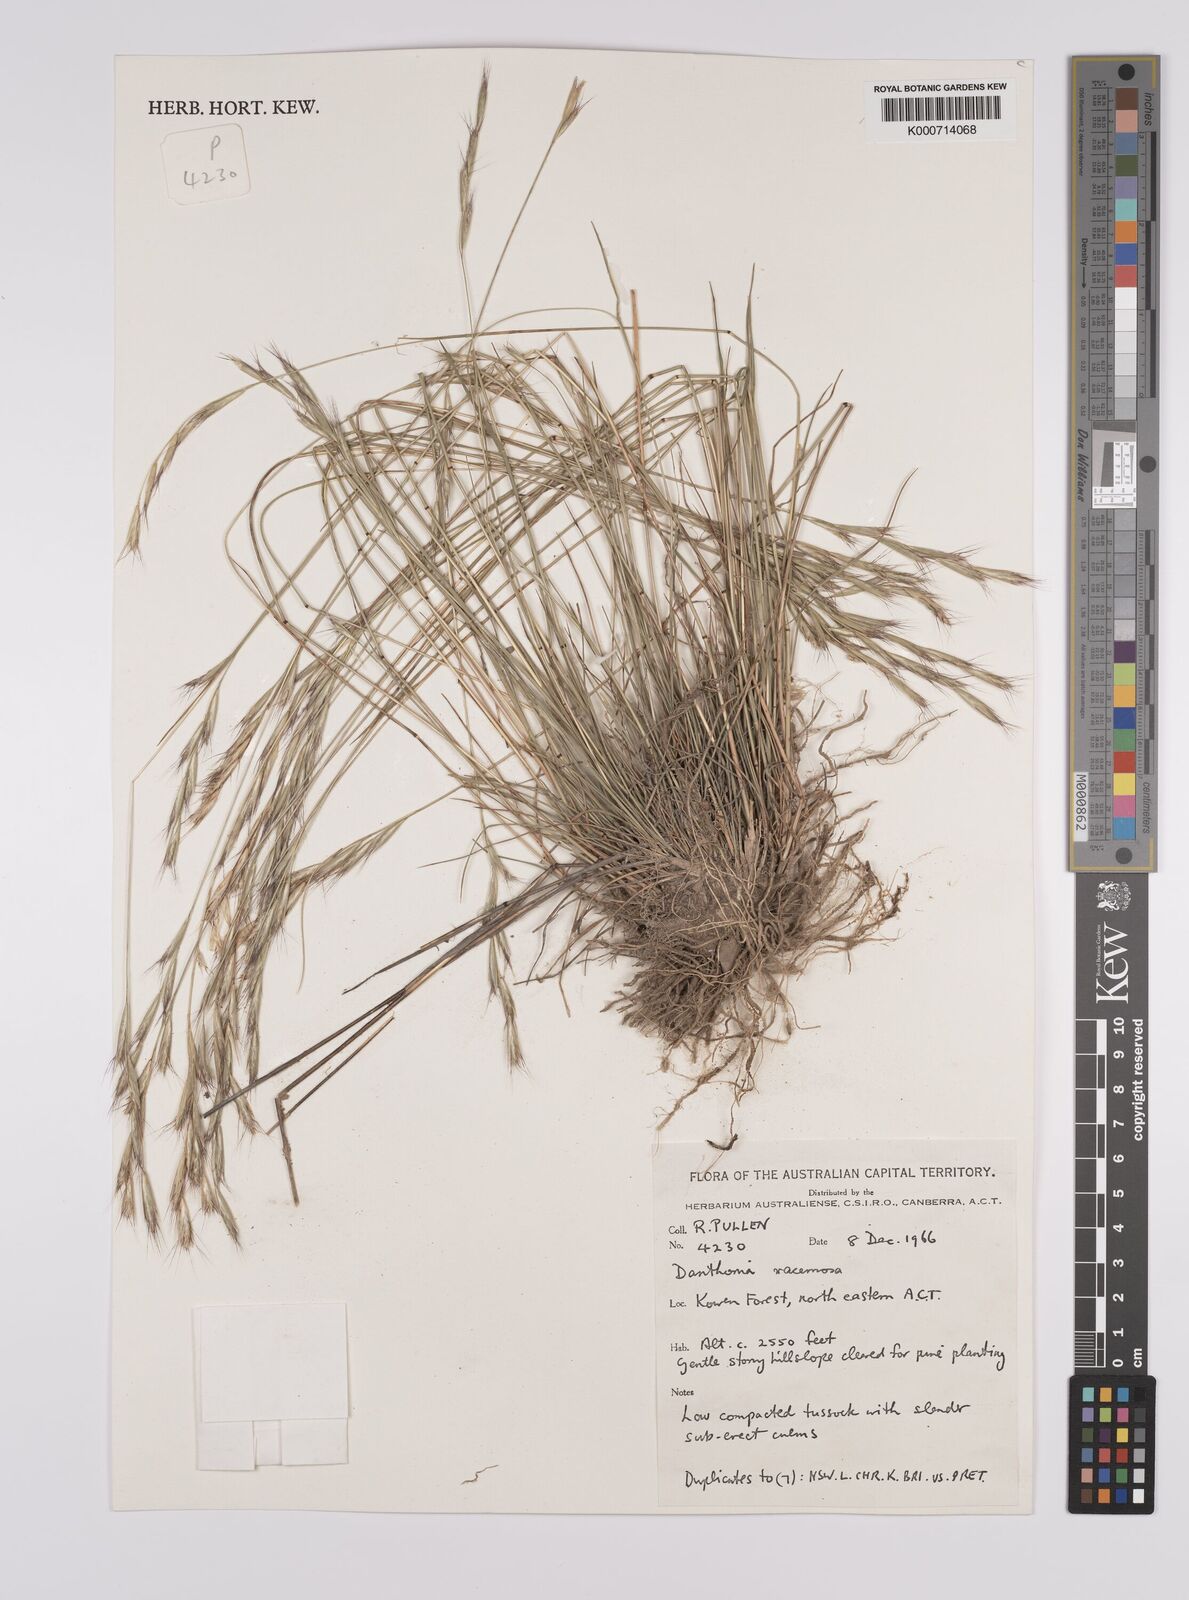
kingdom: Plantae
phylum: Tracheophyta
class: Liliopsida
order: Poales
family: Poaceae
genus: Rytidosperma
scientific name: Rytidosperma racemosum
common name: Wallaby-grass
